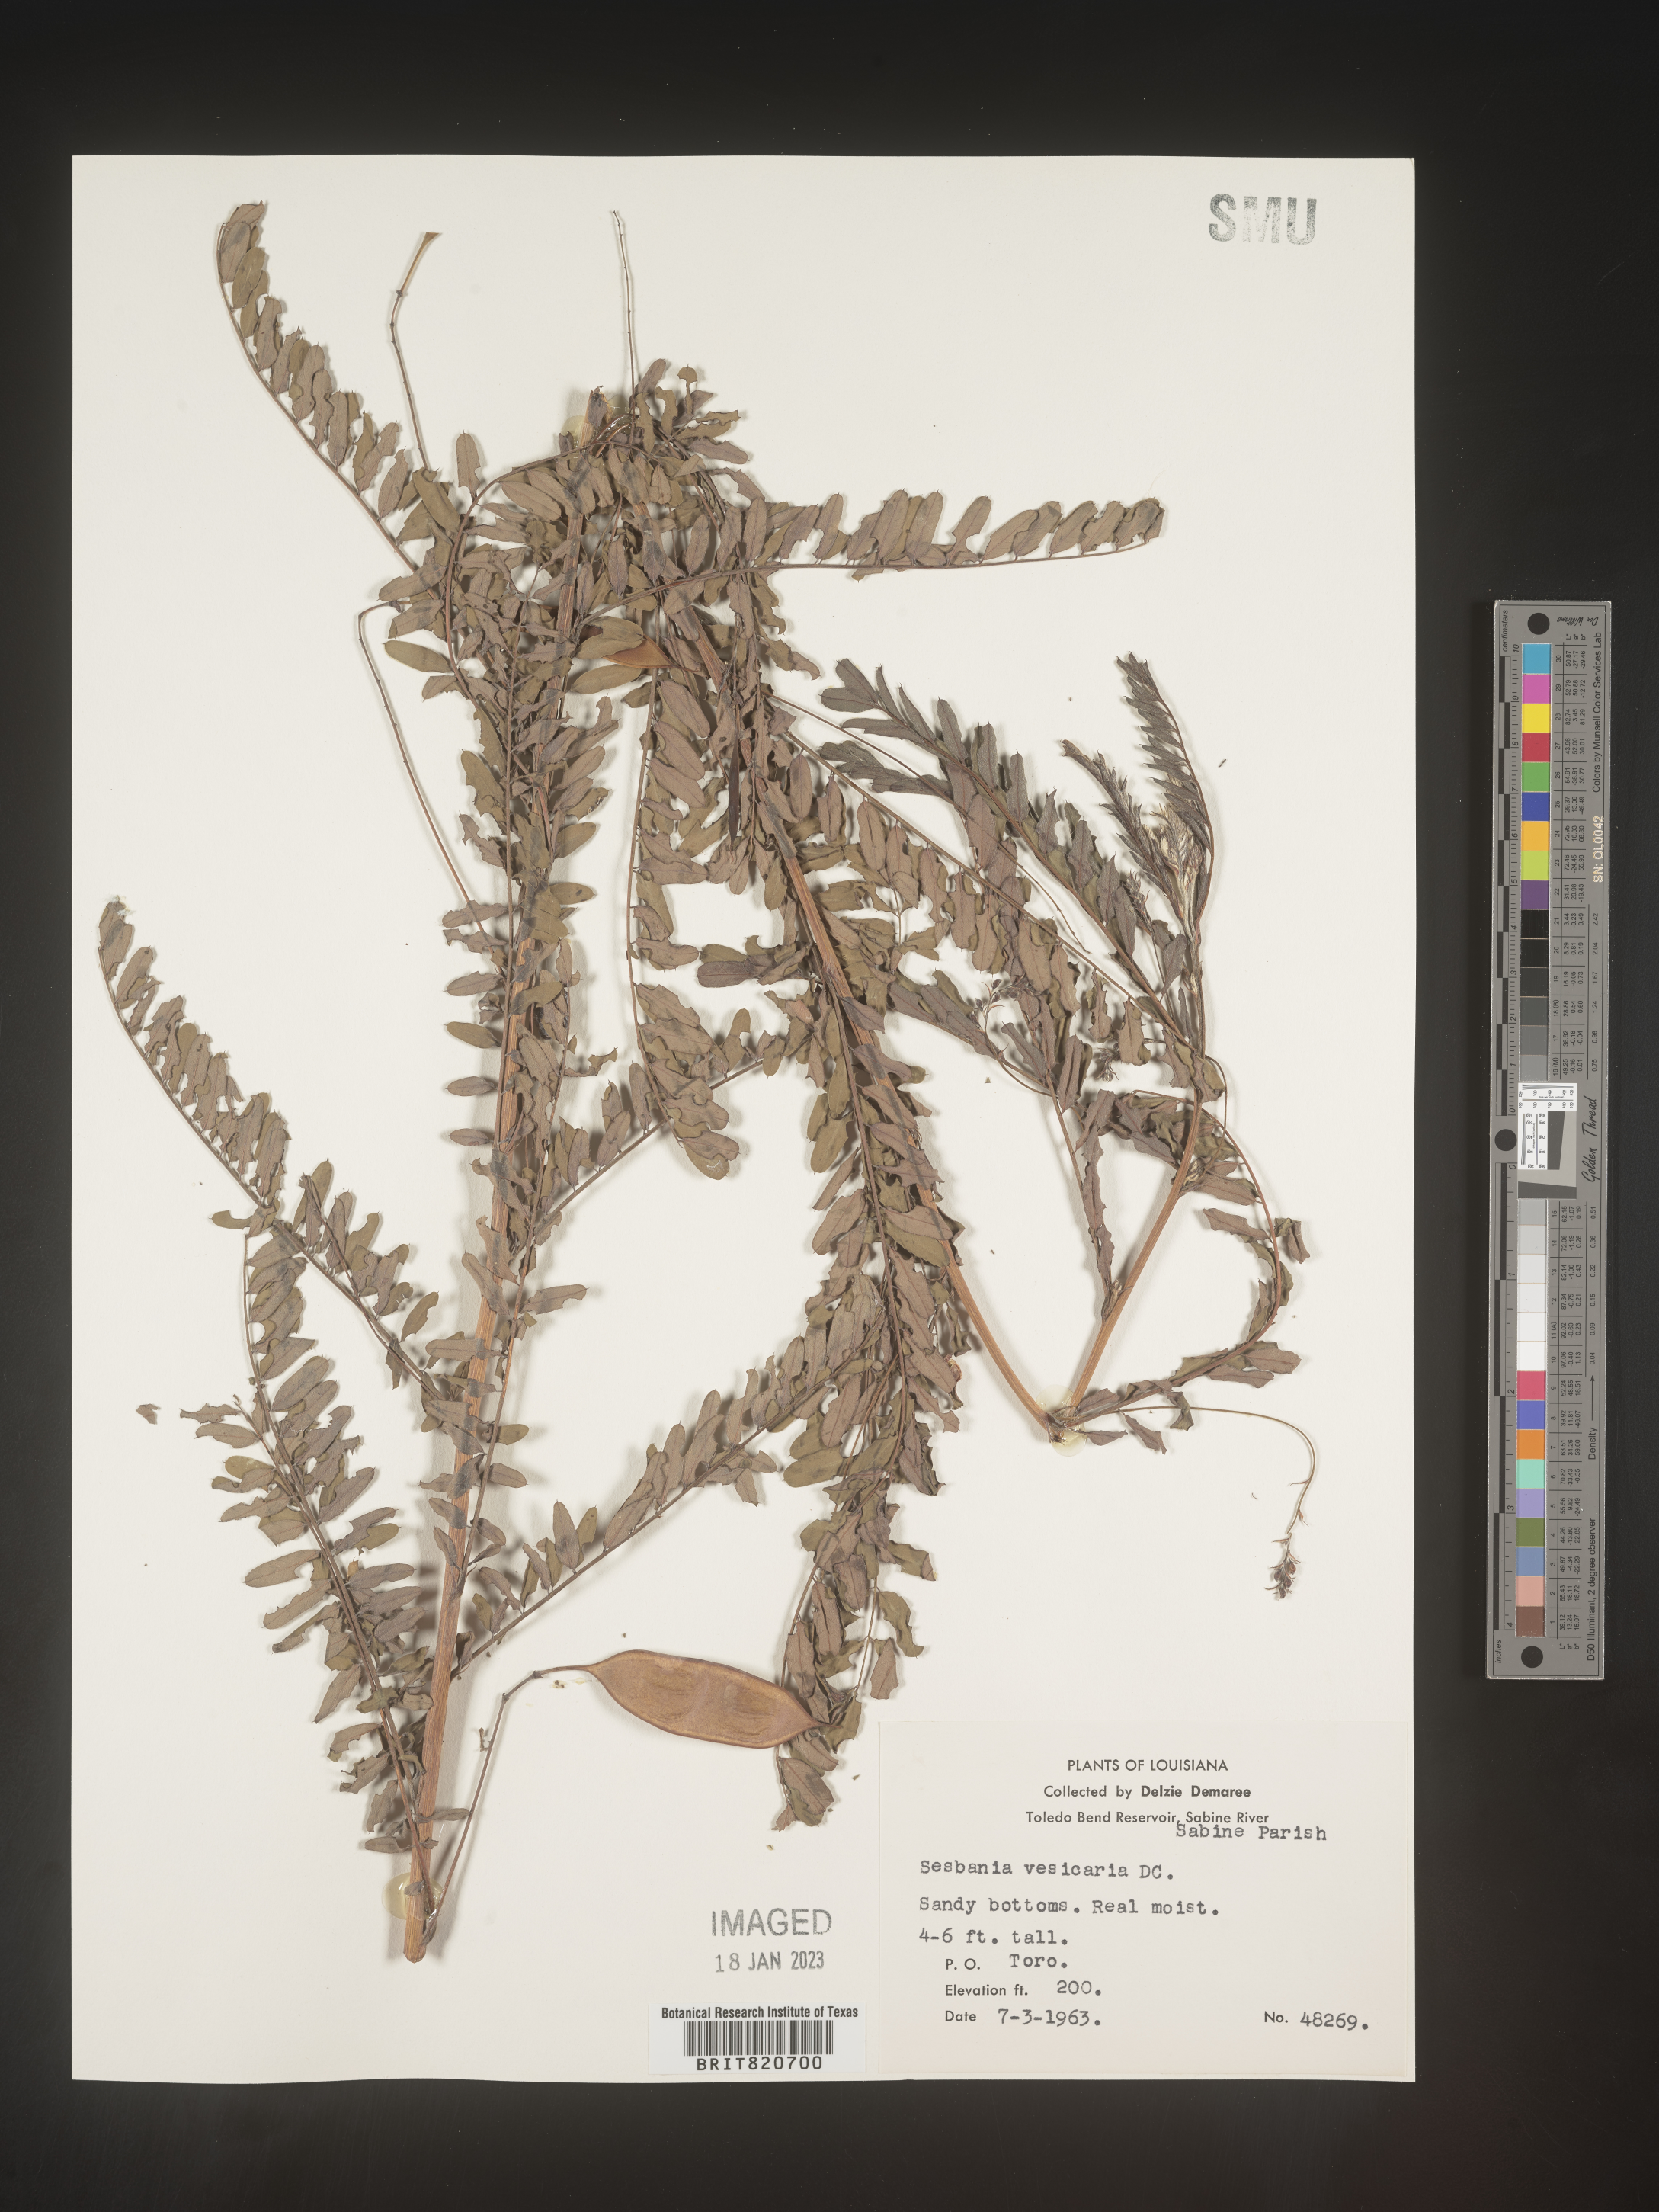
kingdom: Plantae
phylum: Tracheophyta
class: Magnoliopsida
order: Fabales
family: Fabaceae
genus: Sesbania
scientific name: Sesbania vesicaria
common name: Bagpod
